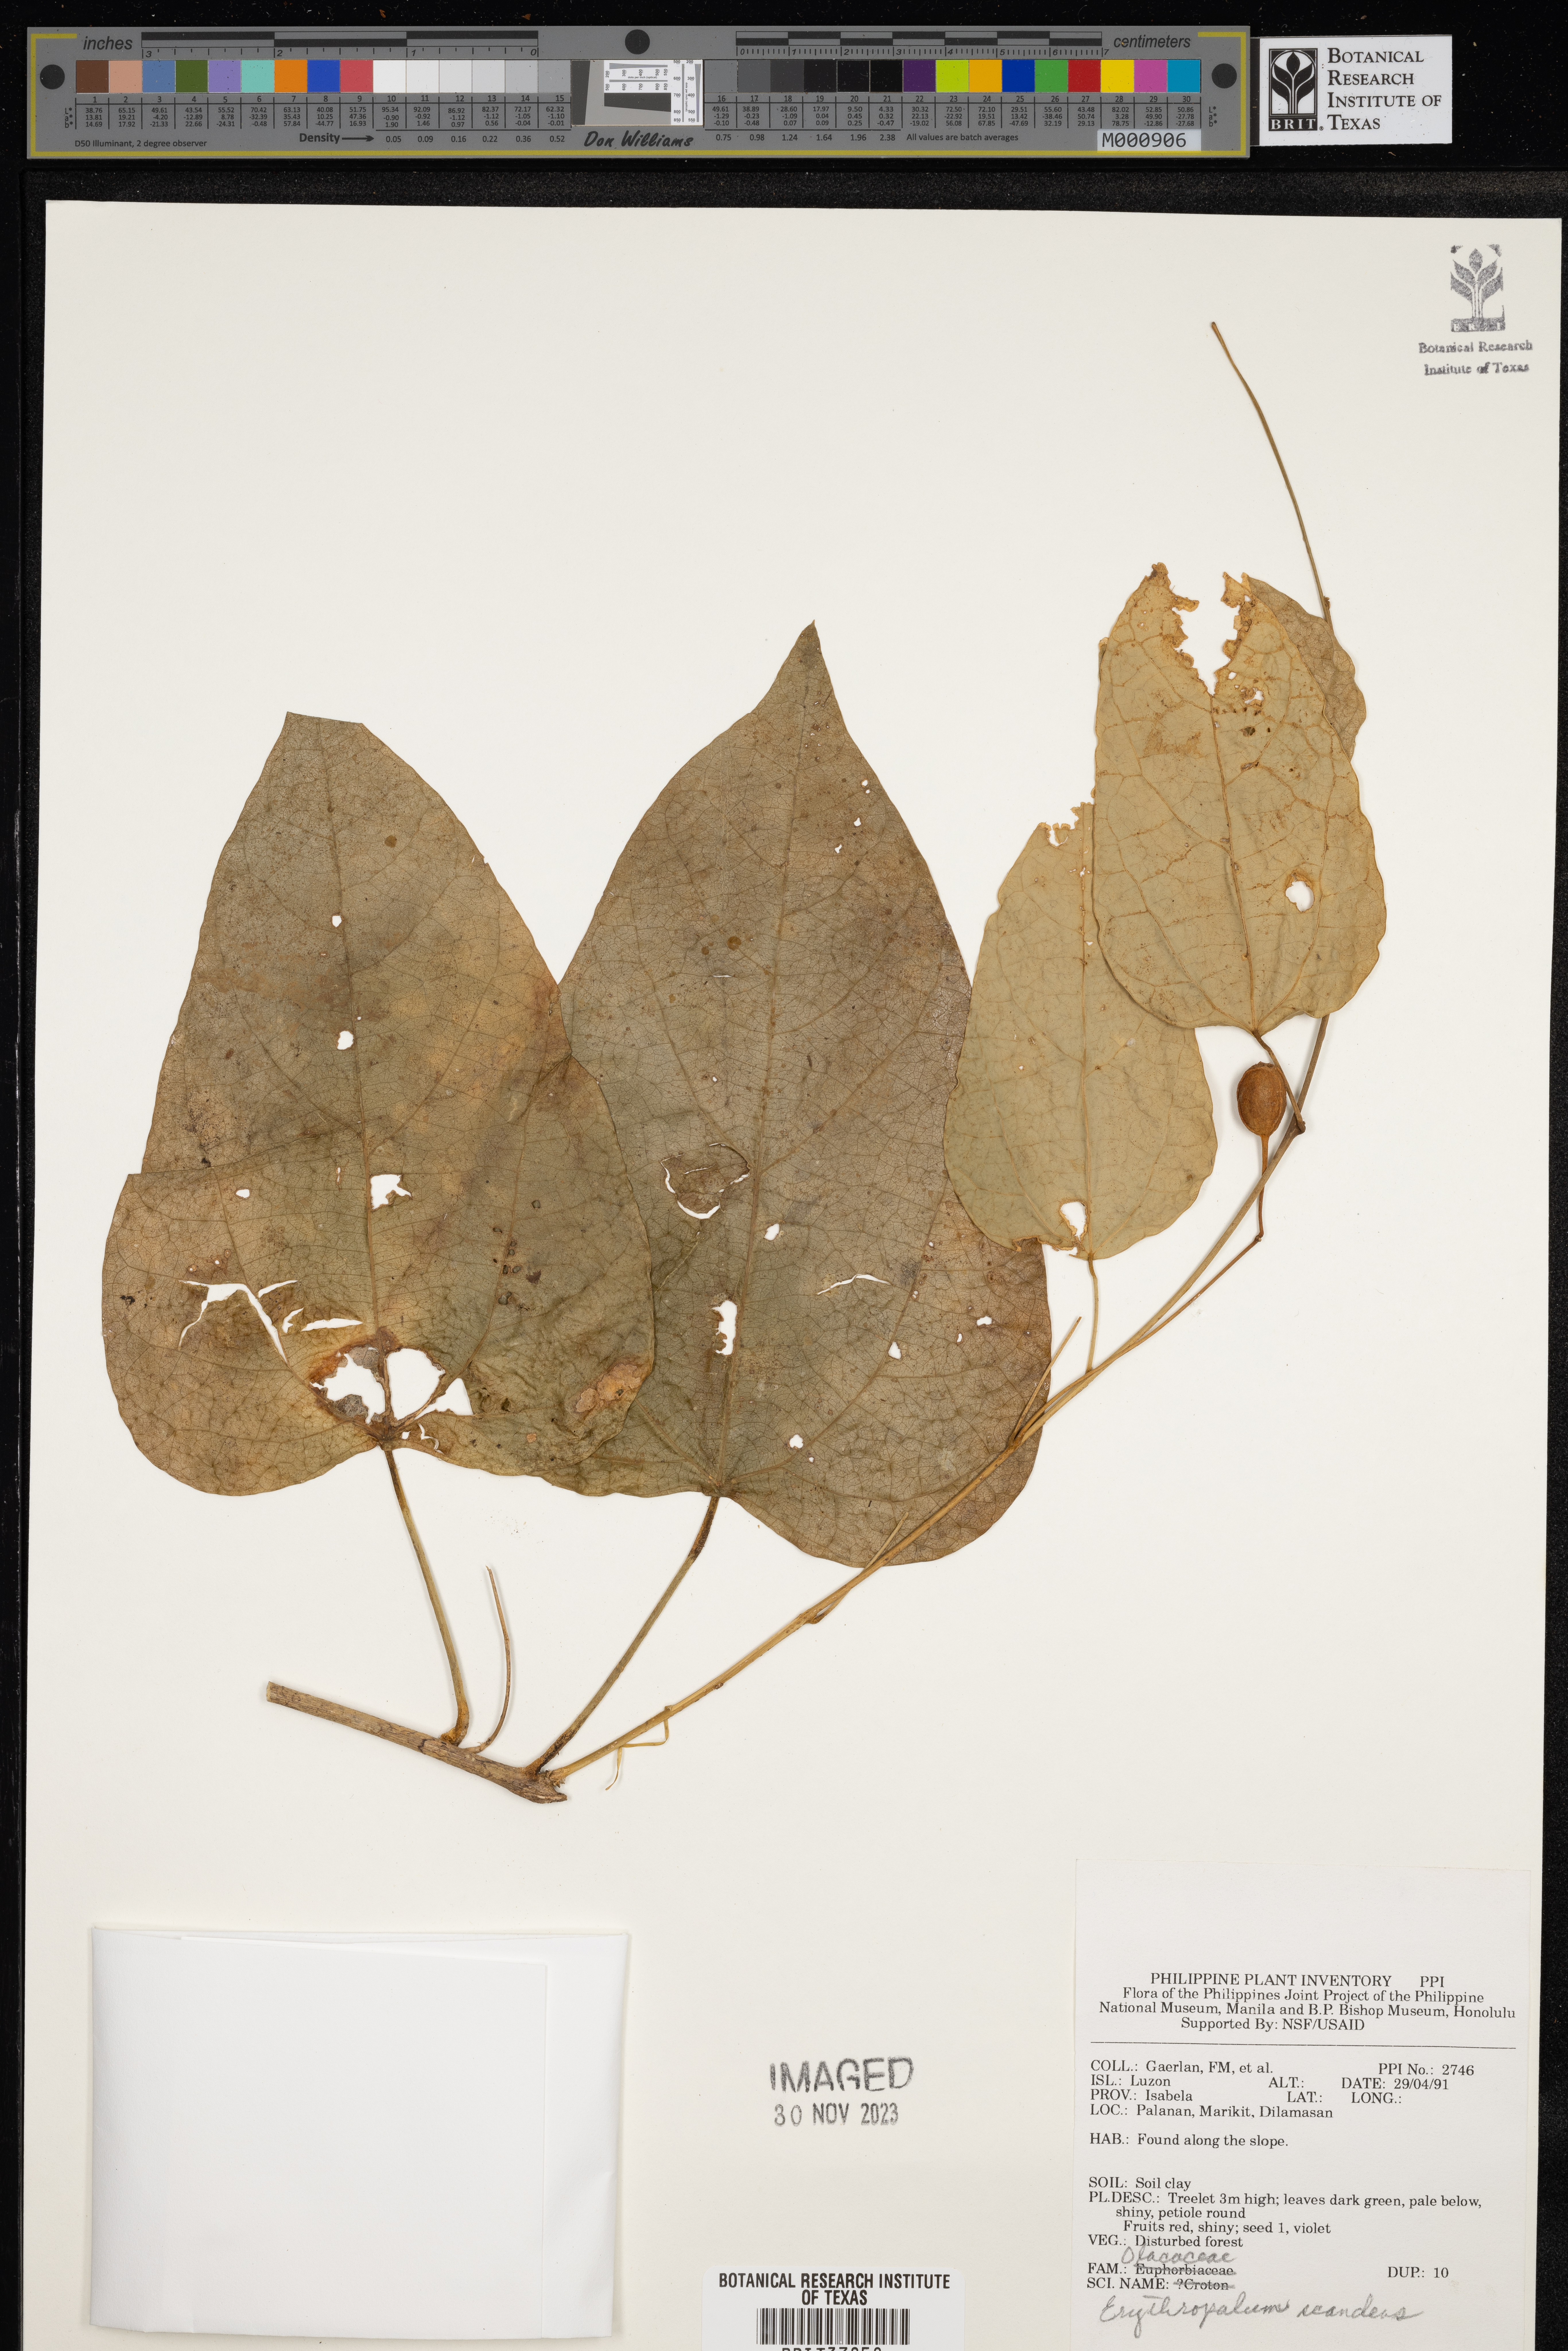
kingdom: Plantae
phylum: Tracheophyta
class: Magnoliopsida
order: Santalales
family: Erythropalaceae
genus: Erythropalum
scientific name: Erythropalum scandens
